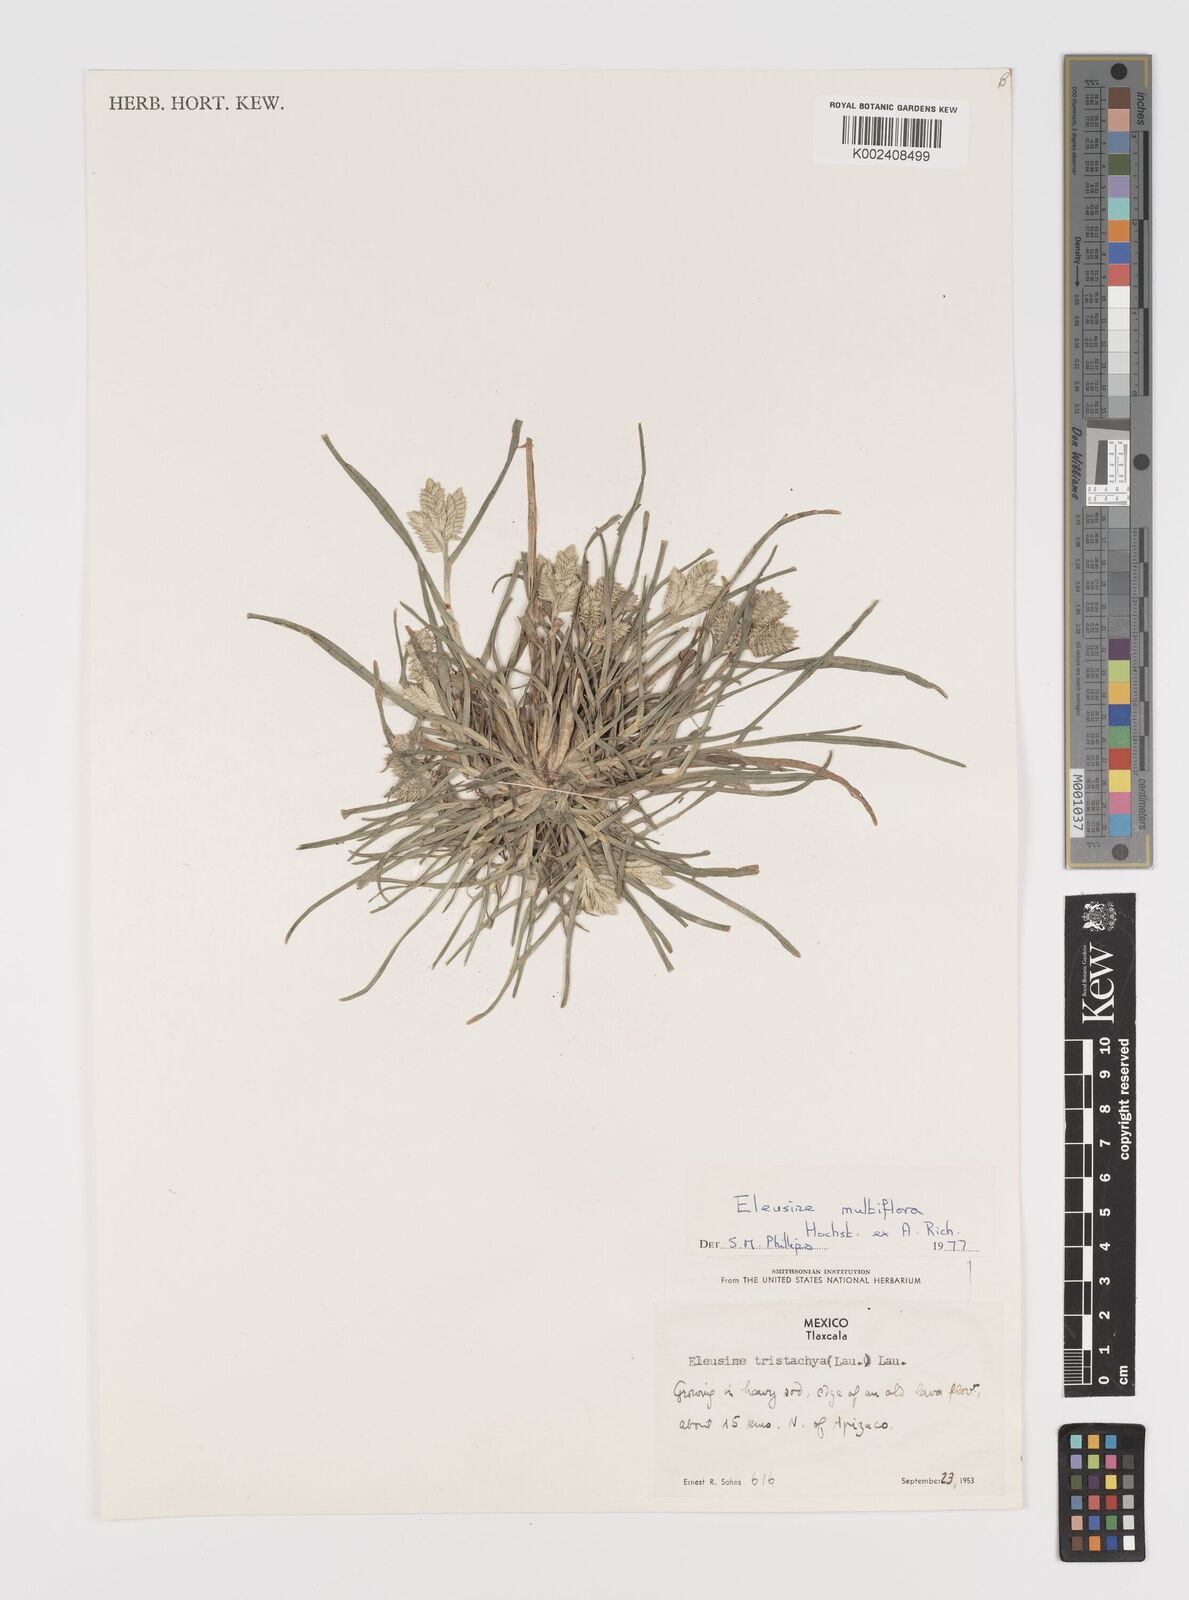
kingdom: Plantae
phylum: Tracheophyta
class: Liliopsida
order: Poales
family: Poaceae
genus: Eleusine
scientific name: Eleusine multiflora
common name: Fat-spiked yard-grass
